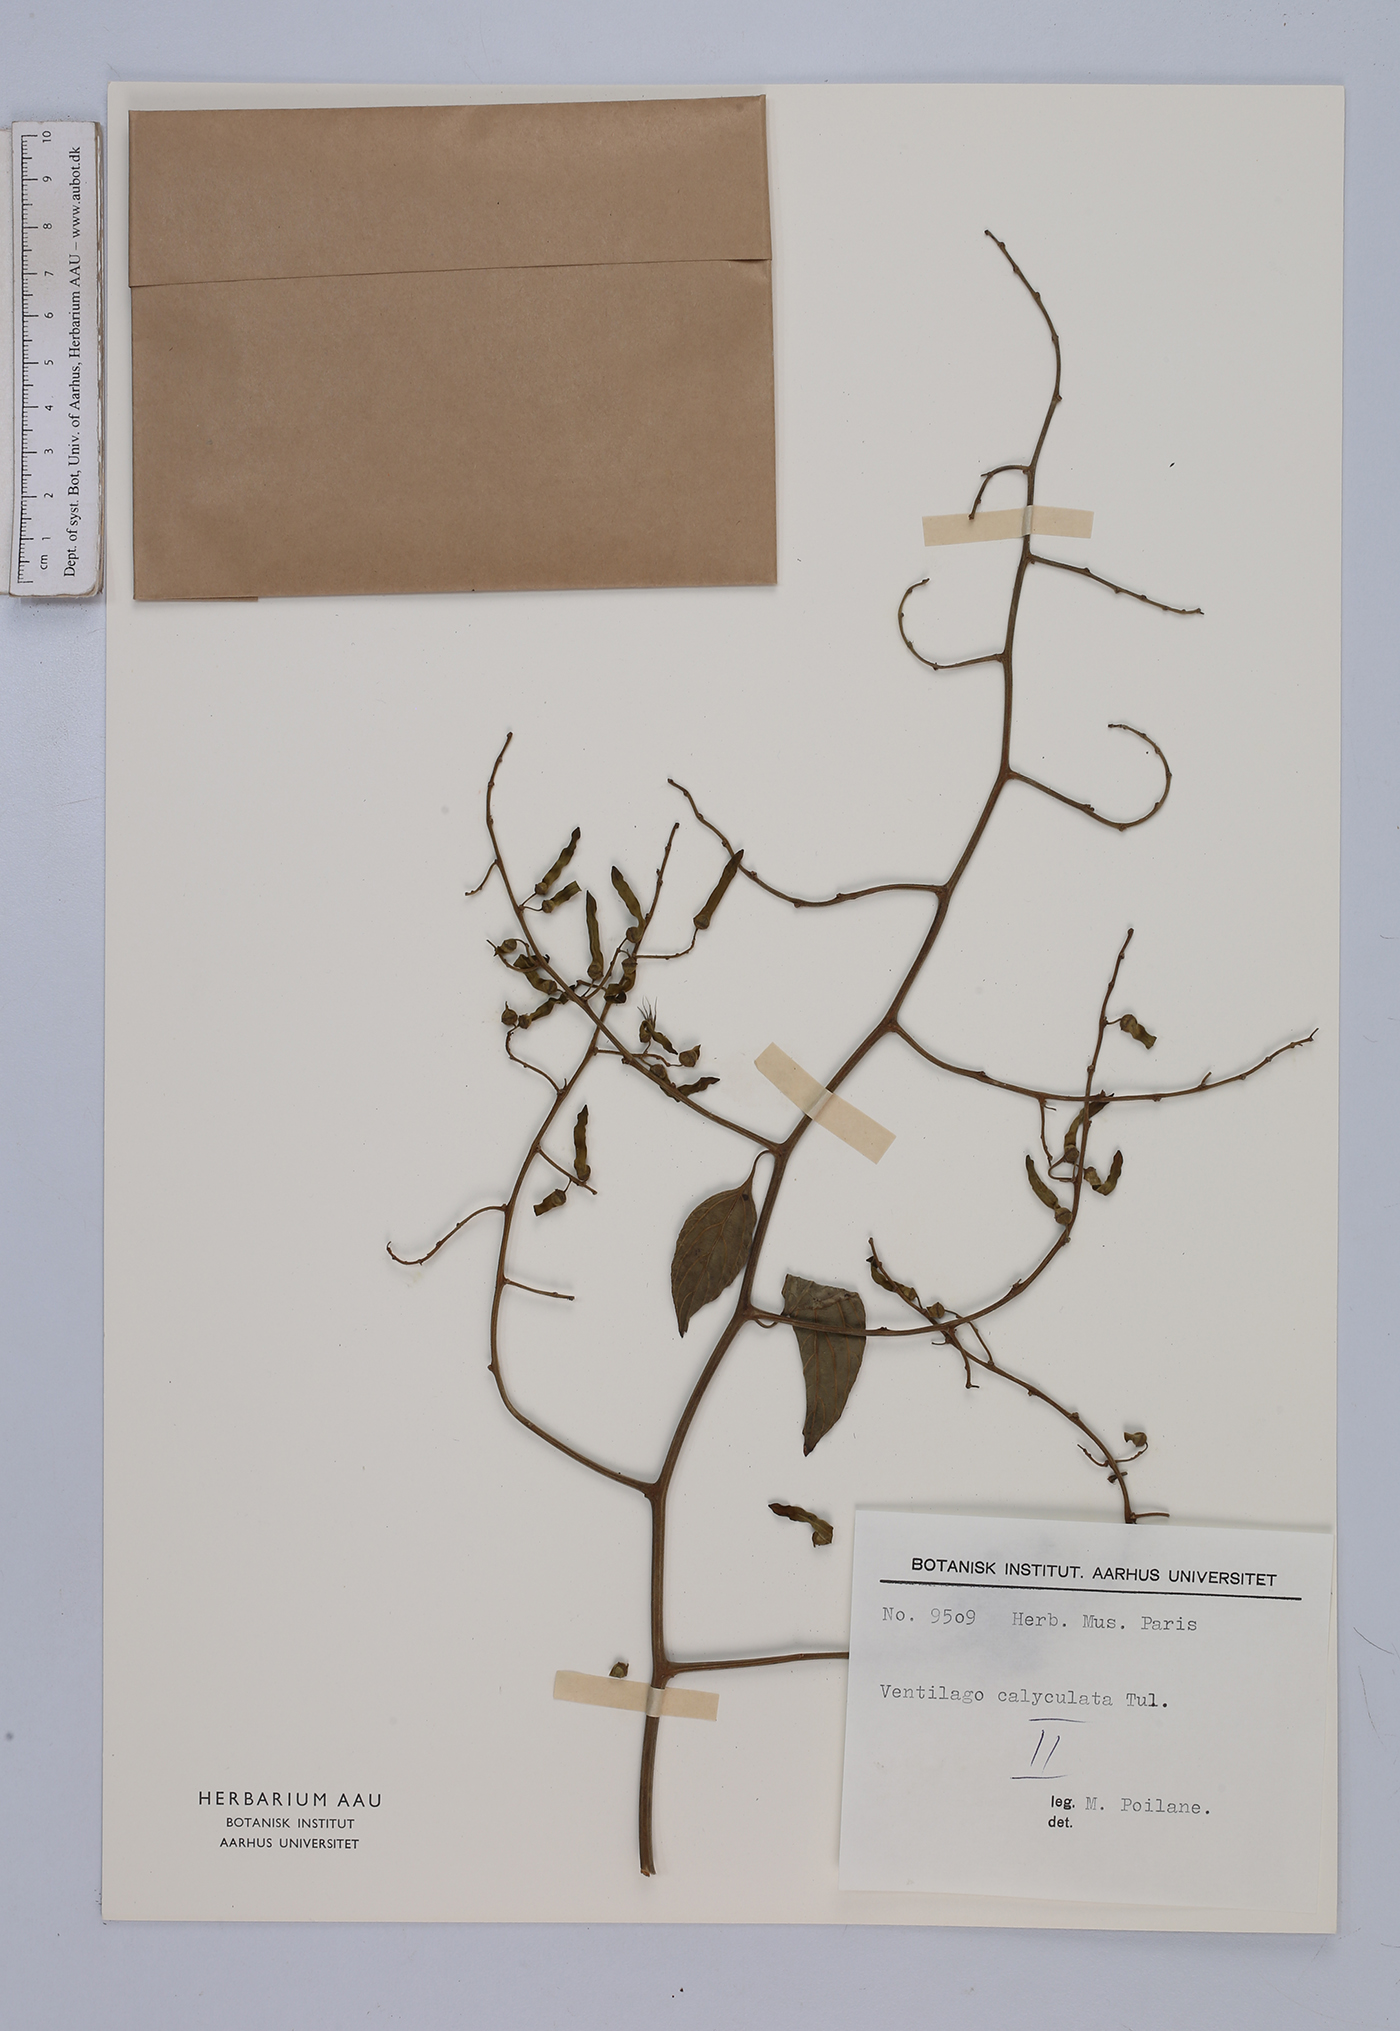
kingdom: Plantae
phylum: Tracheophyta
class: Magnoliopsida
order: Rosales
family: Rhamnaceae
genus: Ventilago
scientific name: Ventilago denticulata
